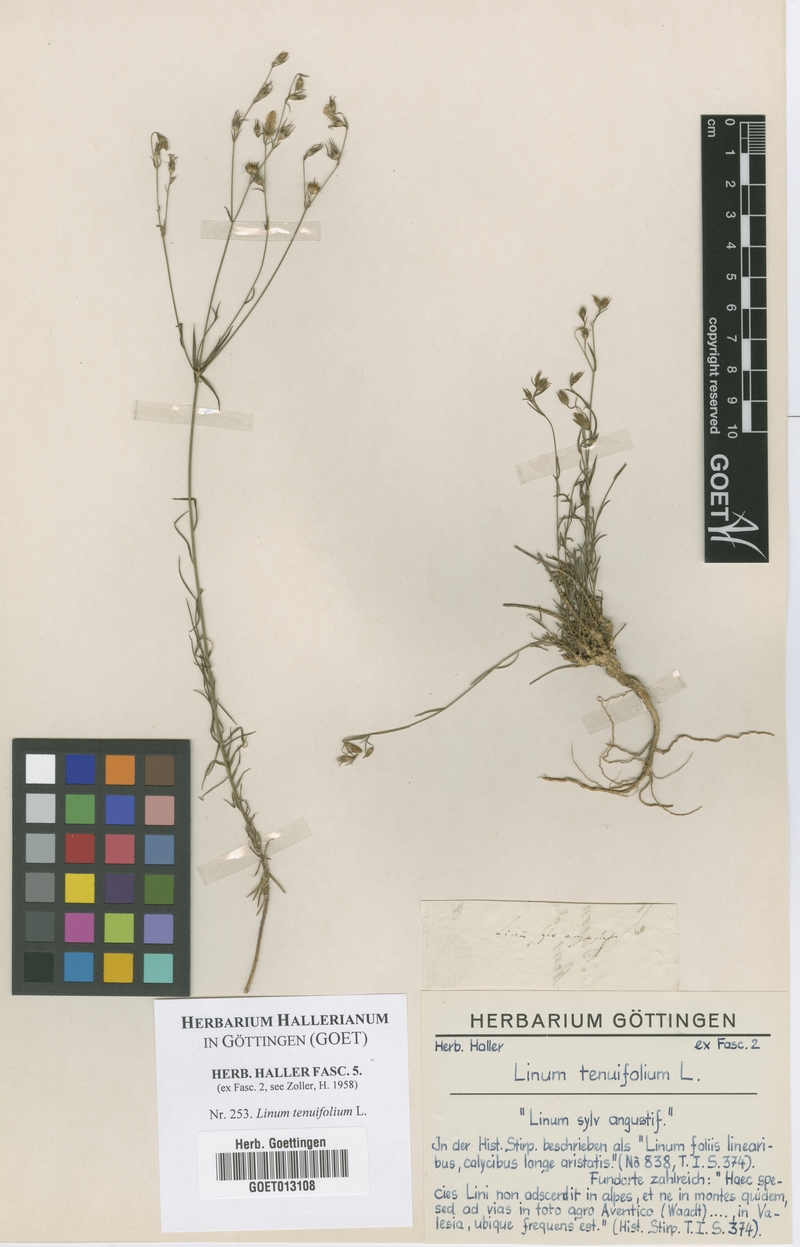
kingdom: Plantae
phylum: Tracheophyta
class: Magnoliopsida
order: Malpighiales
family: Linaceae
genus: Linum
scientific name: Linum tenuifolium
